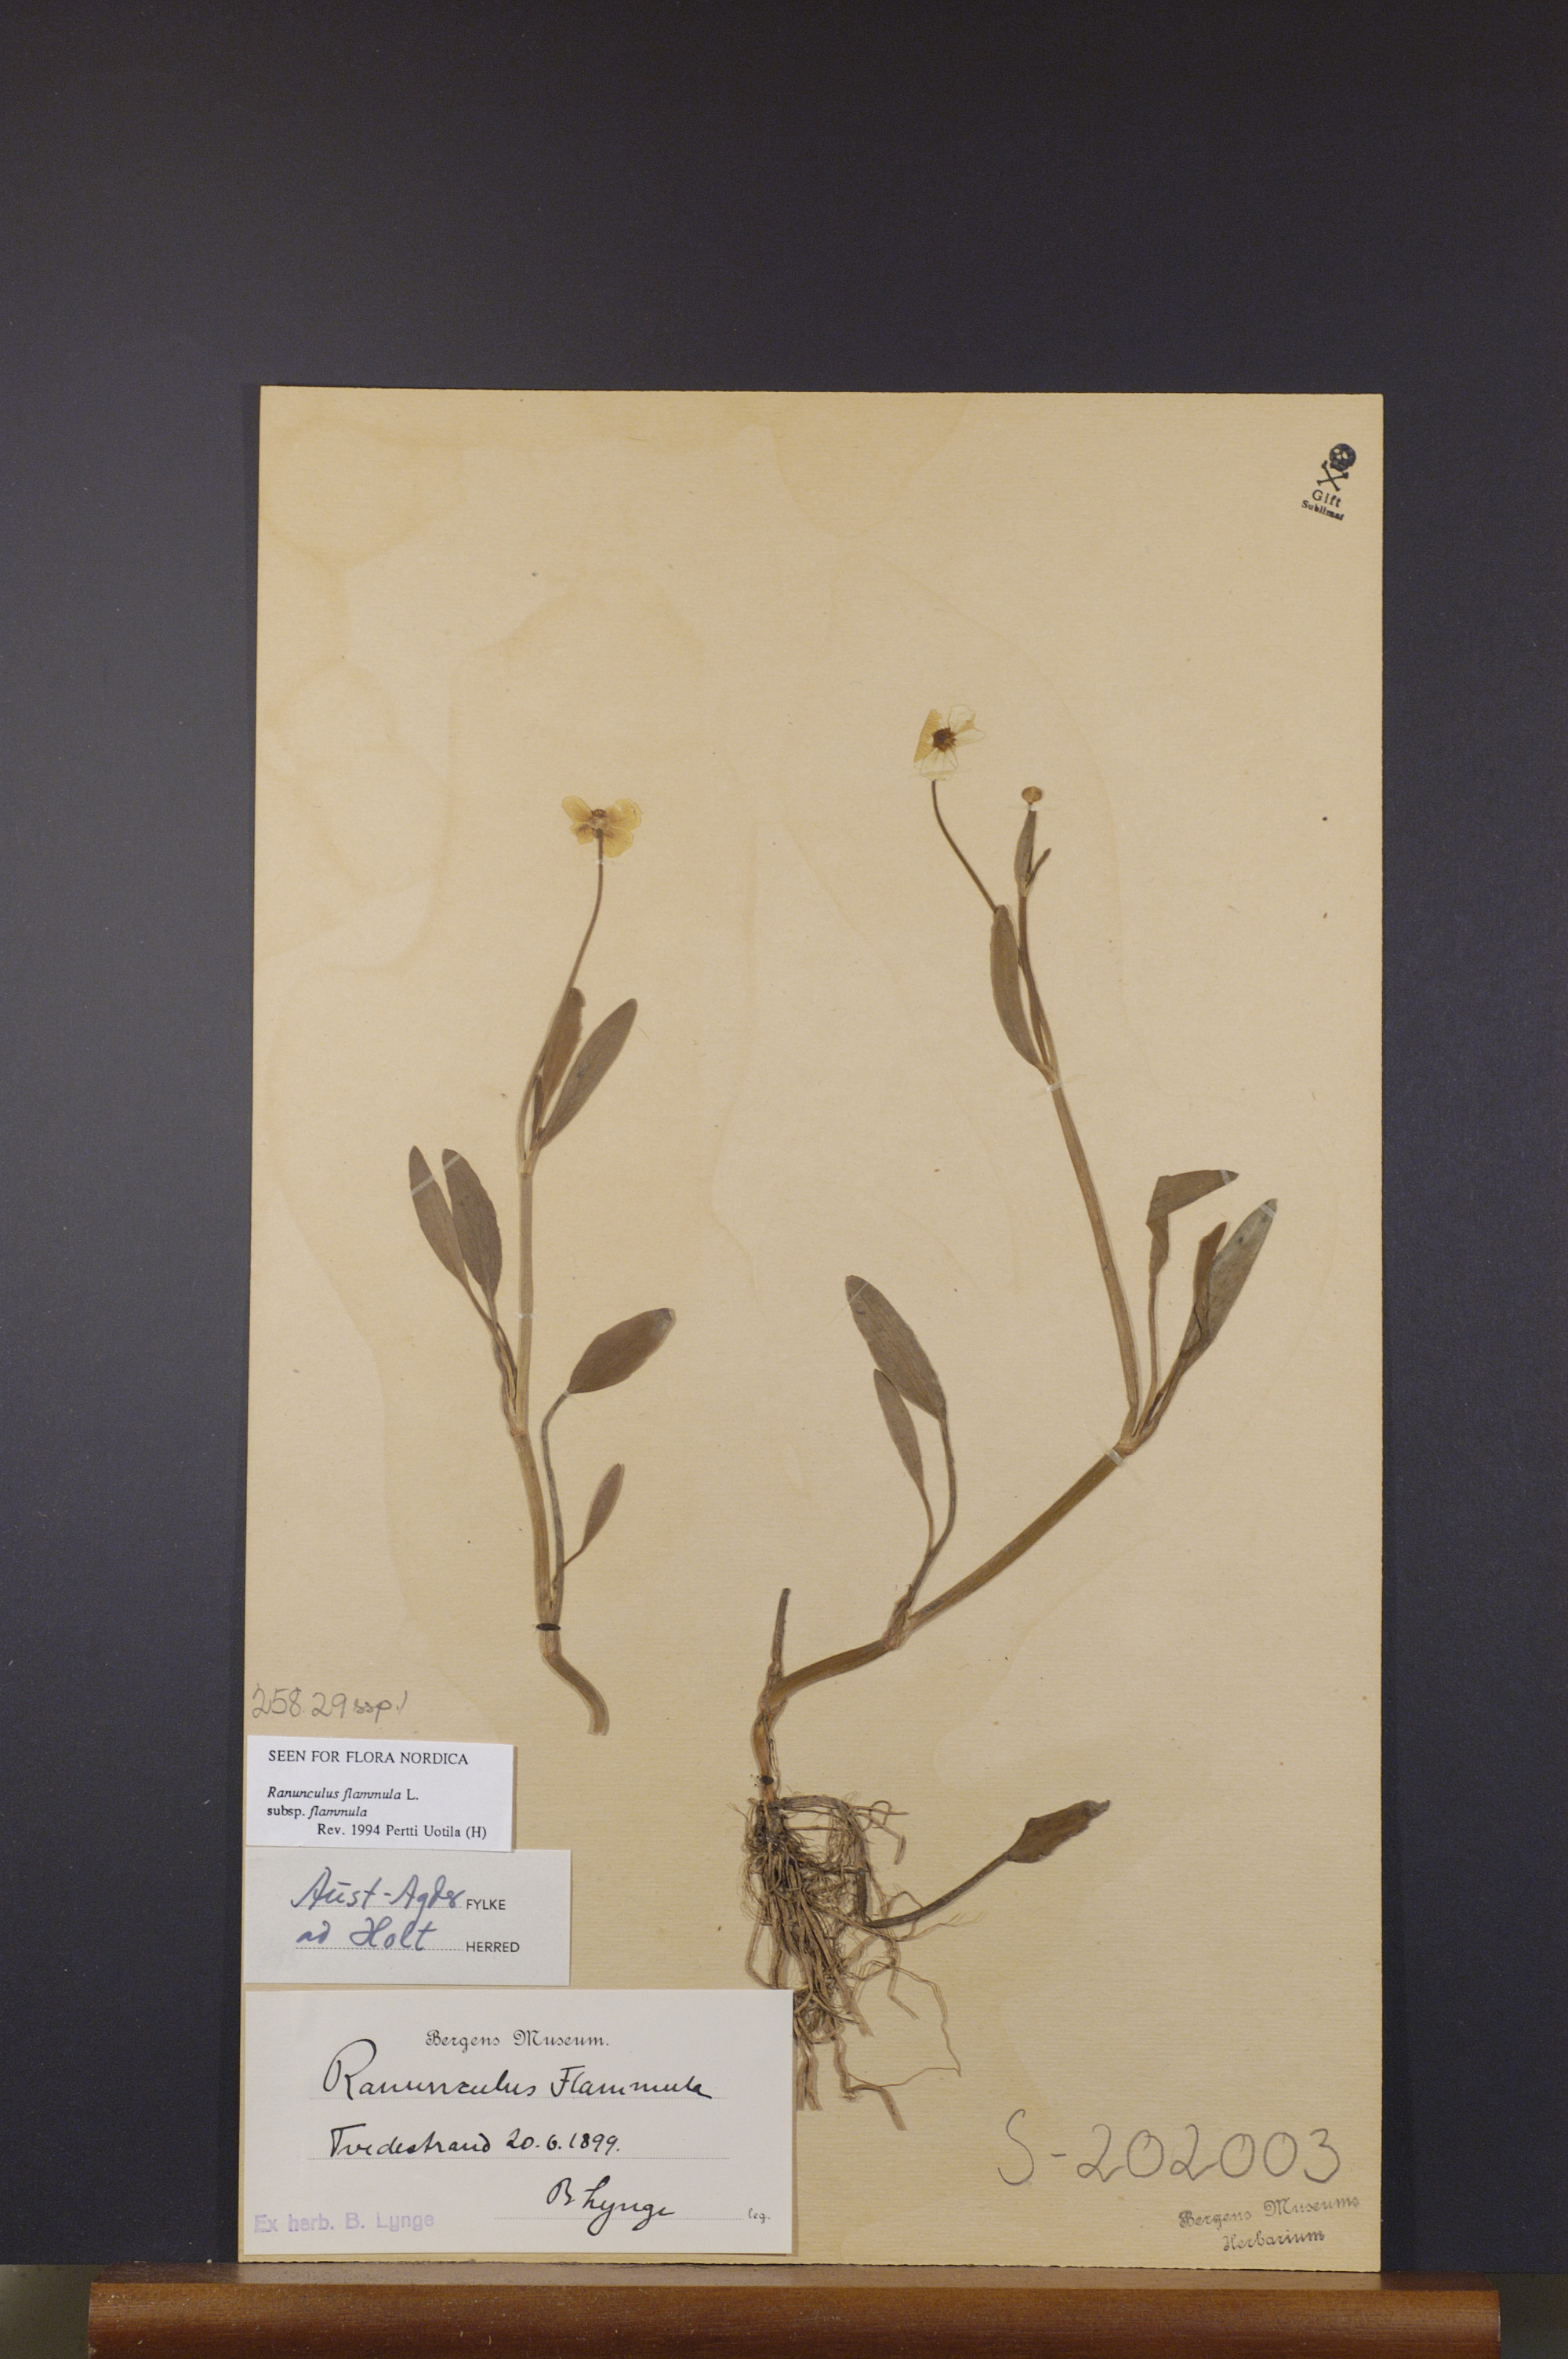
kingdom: Plantae
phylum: Tracheophyta
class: Magnoliopsida
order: Ranunculales
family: Ranunculaceae
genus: Ranunculus
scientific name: Ranunculus flammula
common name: Lesser spearwort
